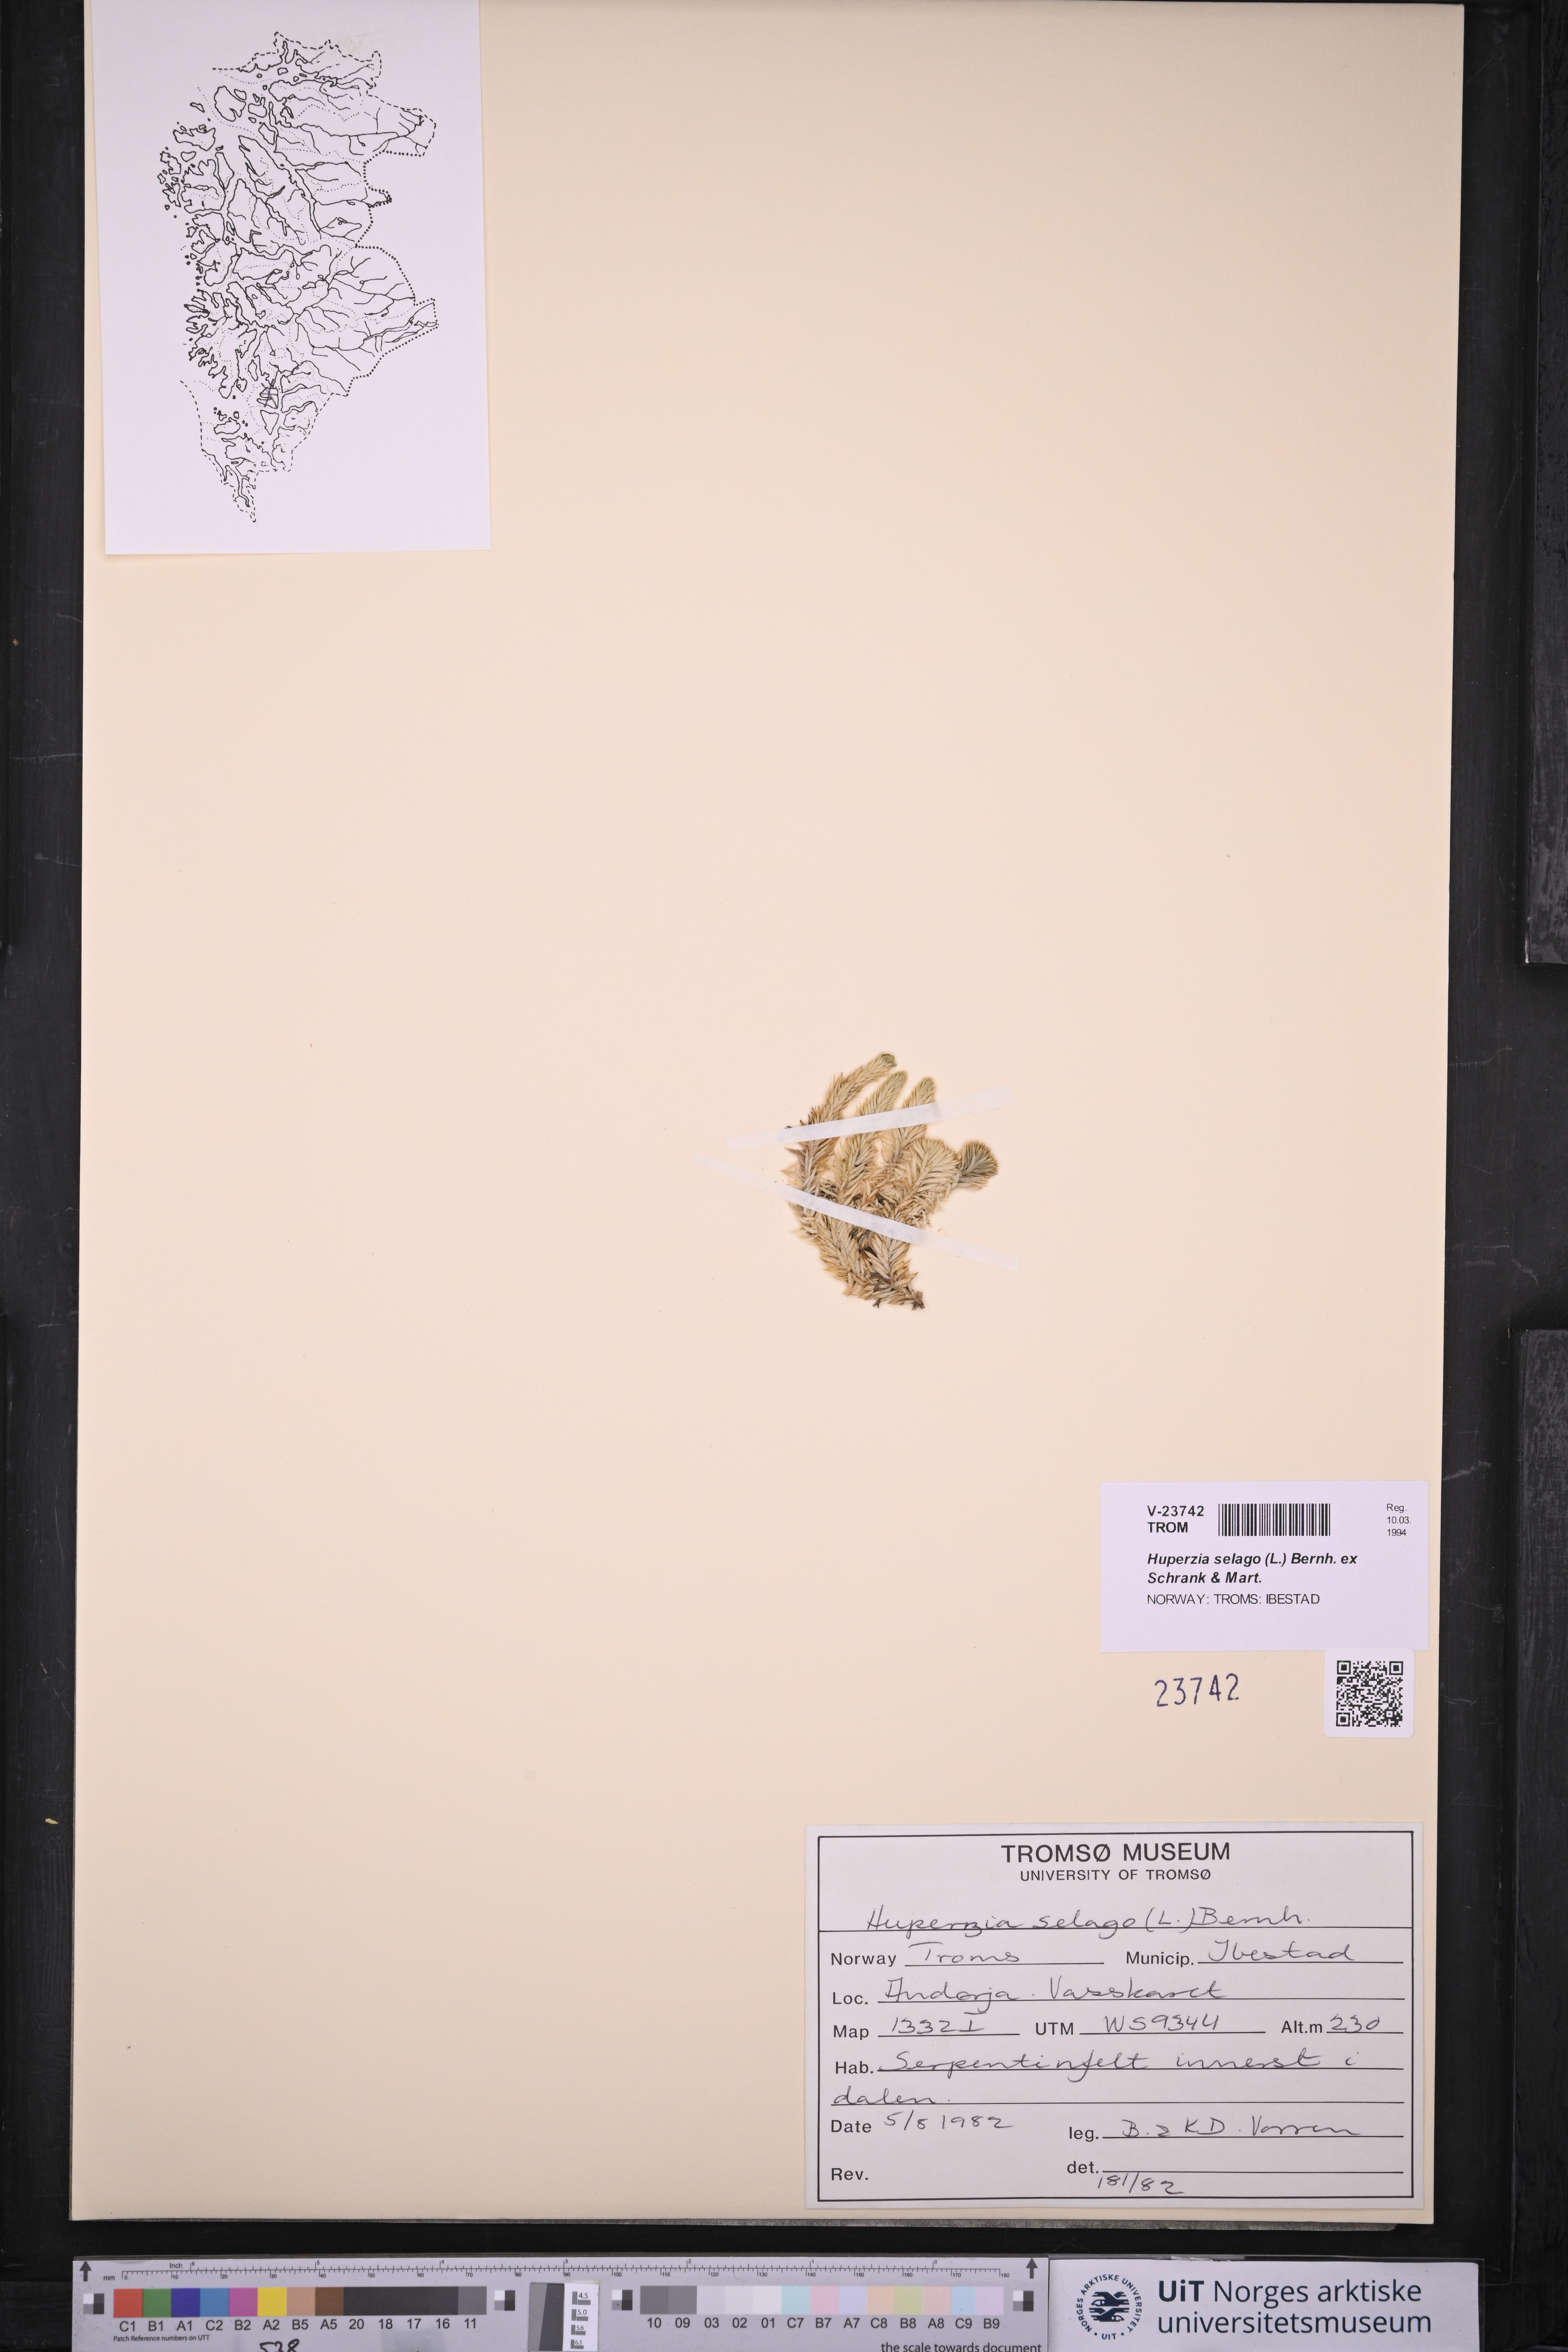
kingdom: Plantae
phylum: Tracheophyta
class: Lycopodiopsida
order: Lycopodiales
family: Lycopodiaceae
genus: Huperzia
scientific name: Huperzia selago
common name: Northern firmoss
